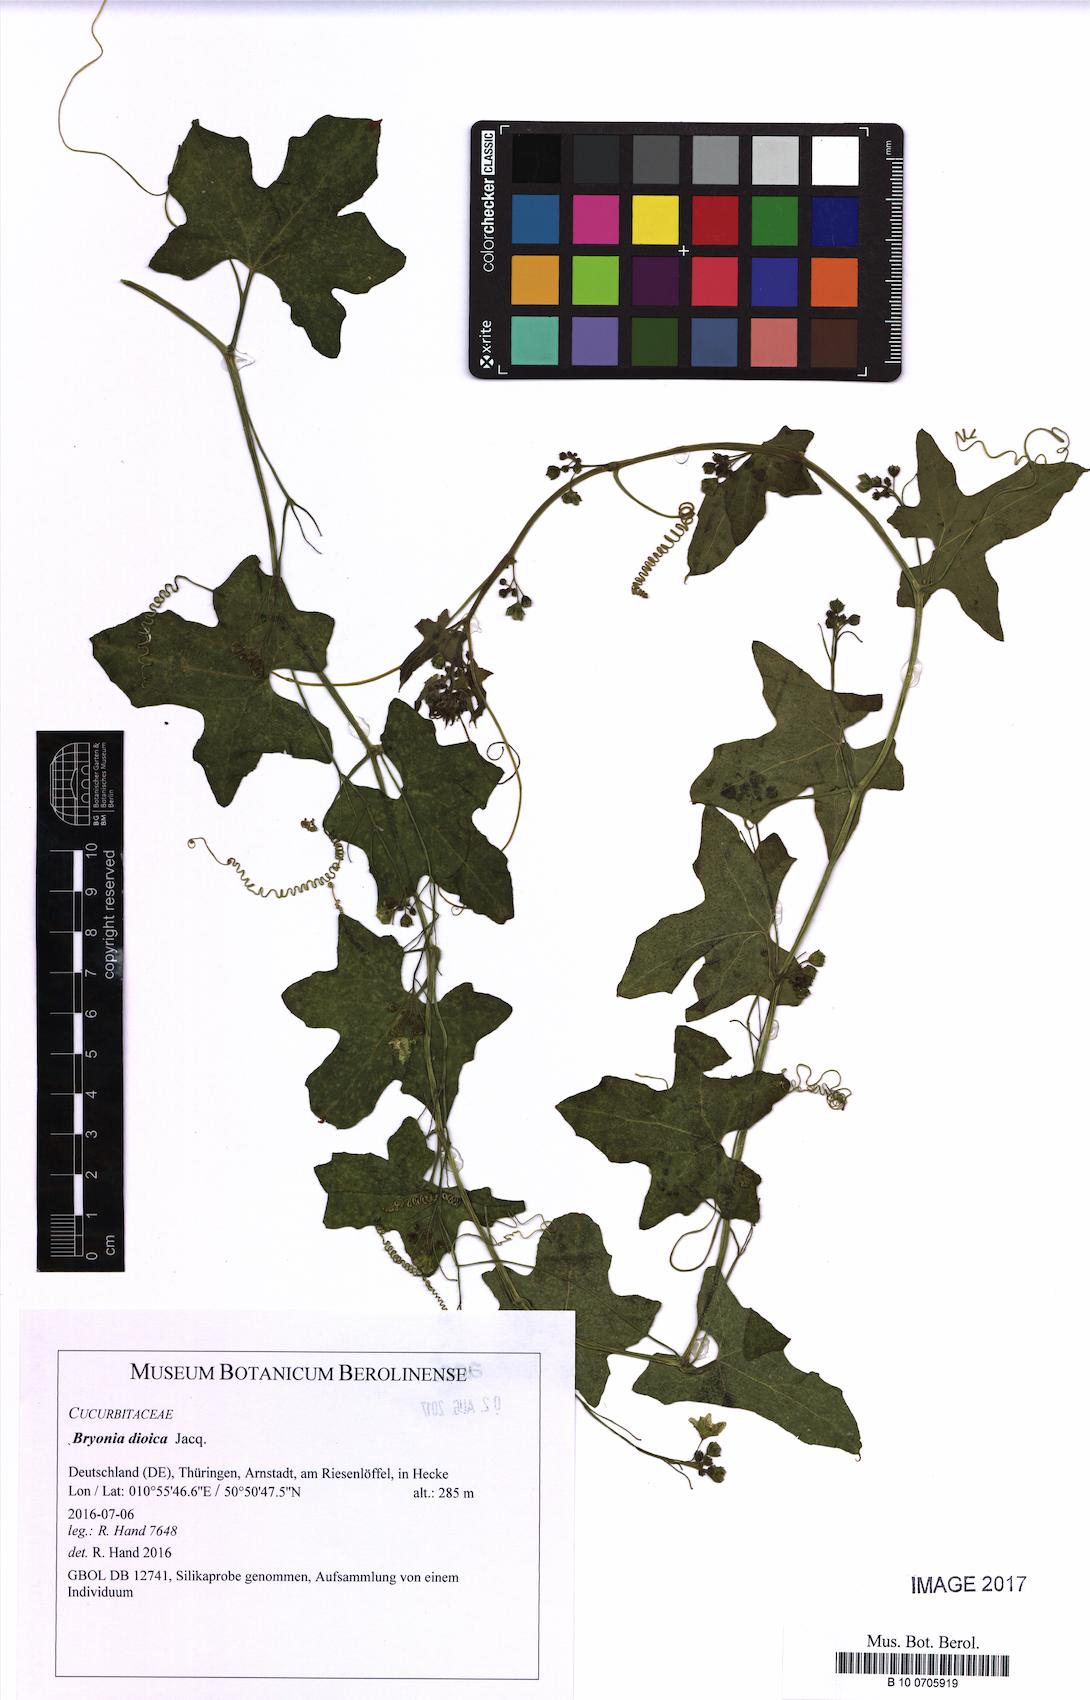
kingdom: Plantae
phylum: Tracheophyta
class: Magnoliopsida
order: Cucurbitales
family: Cucurbitaceae
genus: Bryonia
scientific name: Bryonia dioica
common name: White bryony
